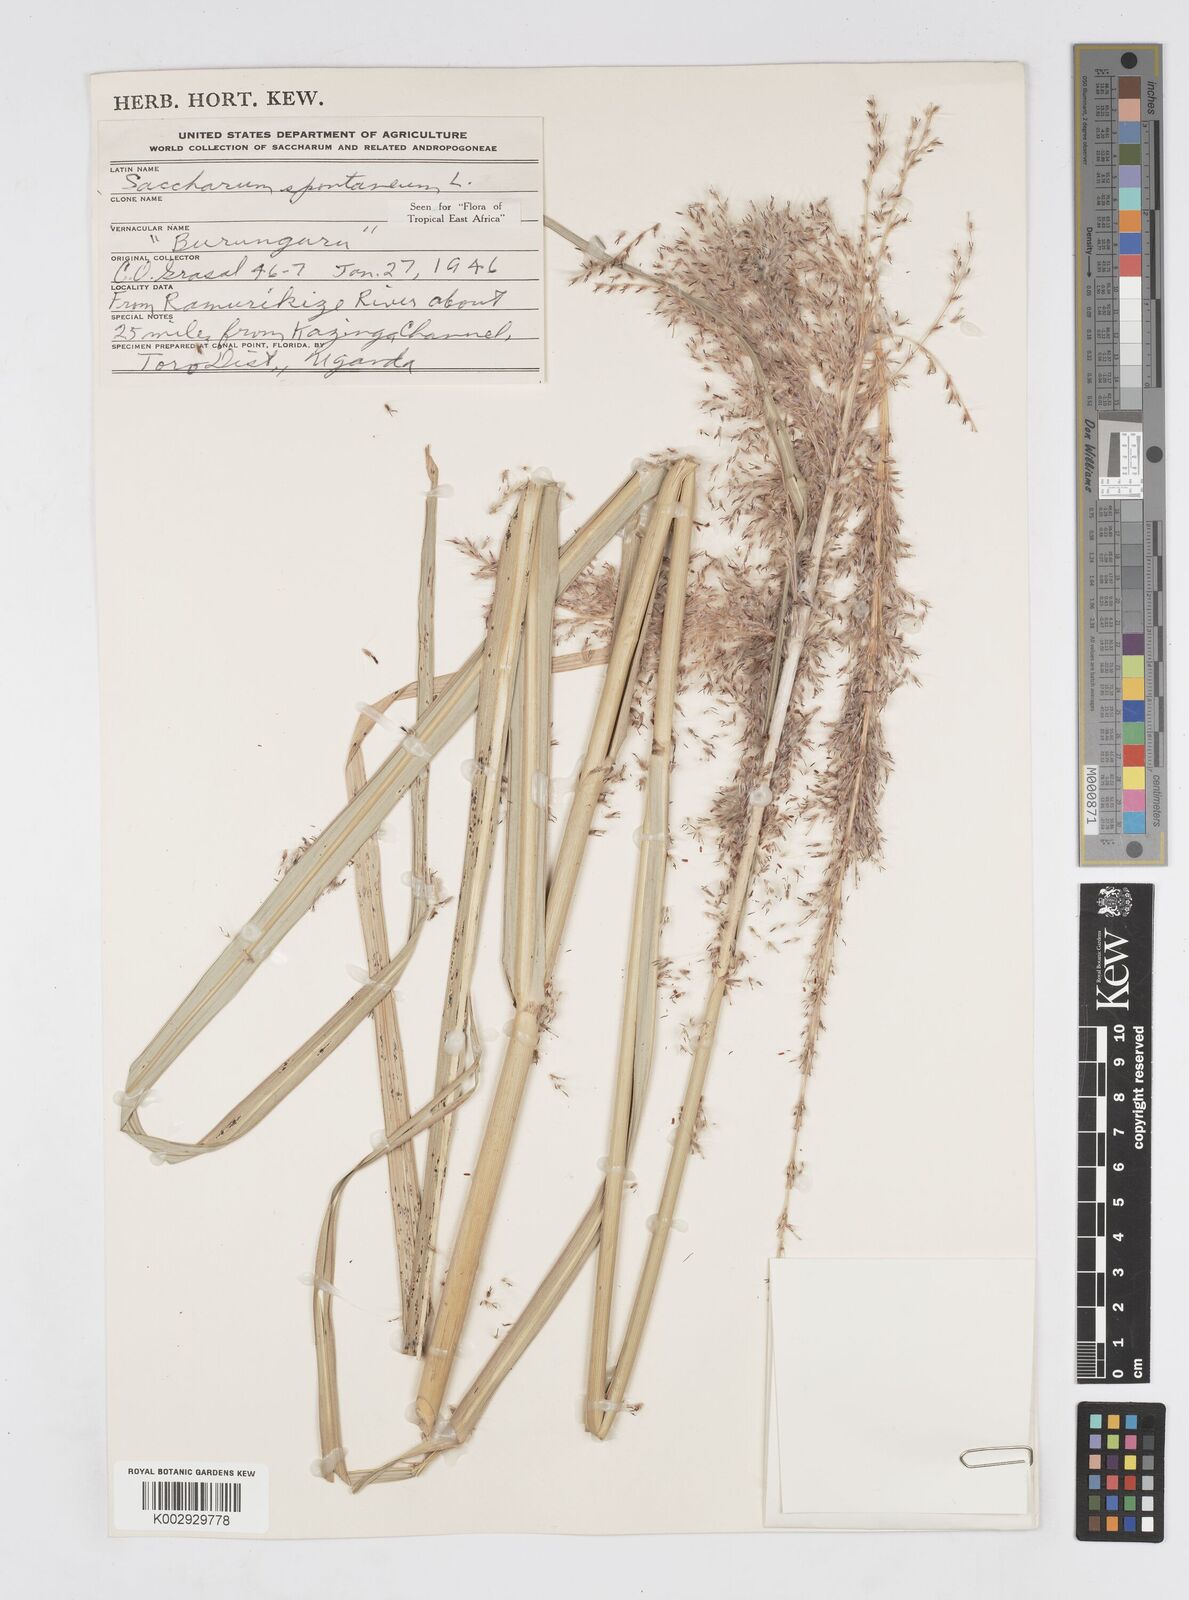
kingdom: Plantae
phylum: Tracheophyta
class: Liliopsida
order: Poales
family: Poaceae
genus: Saccharum
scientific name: Saccharum spontaneum
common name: Wild sugarcane
